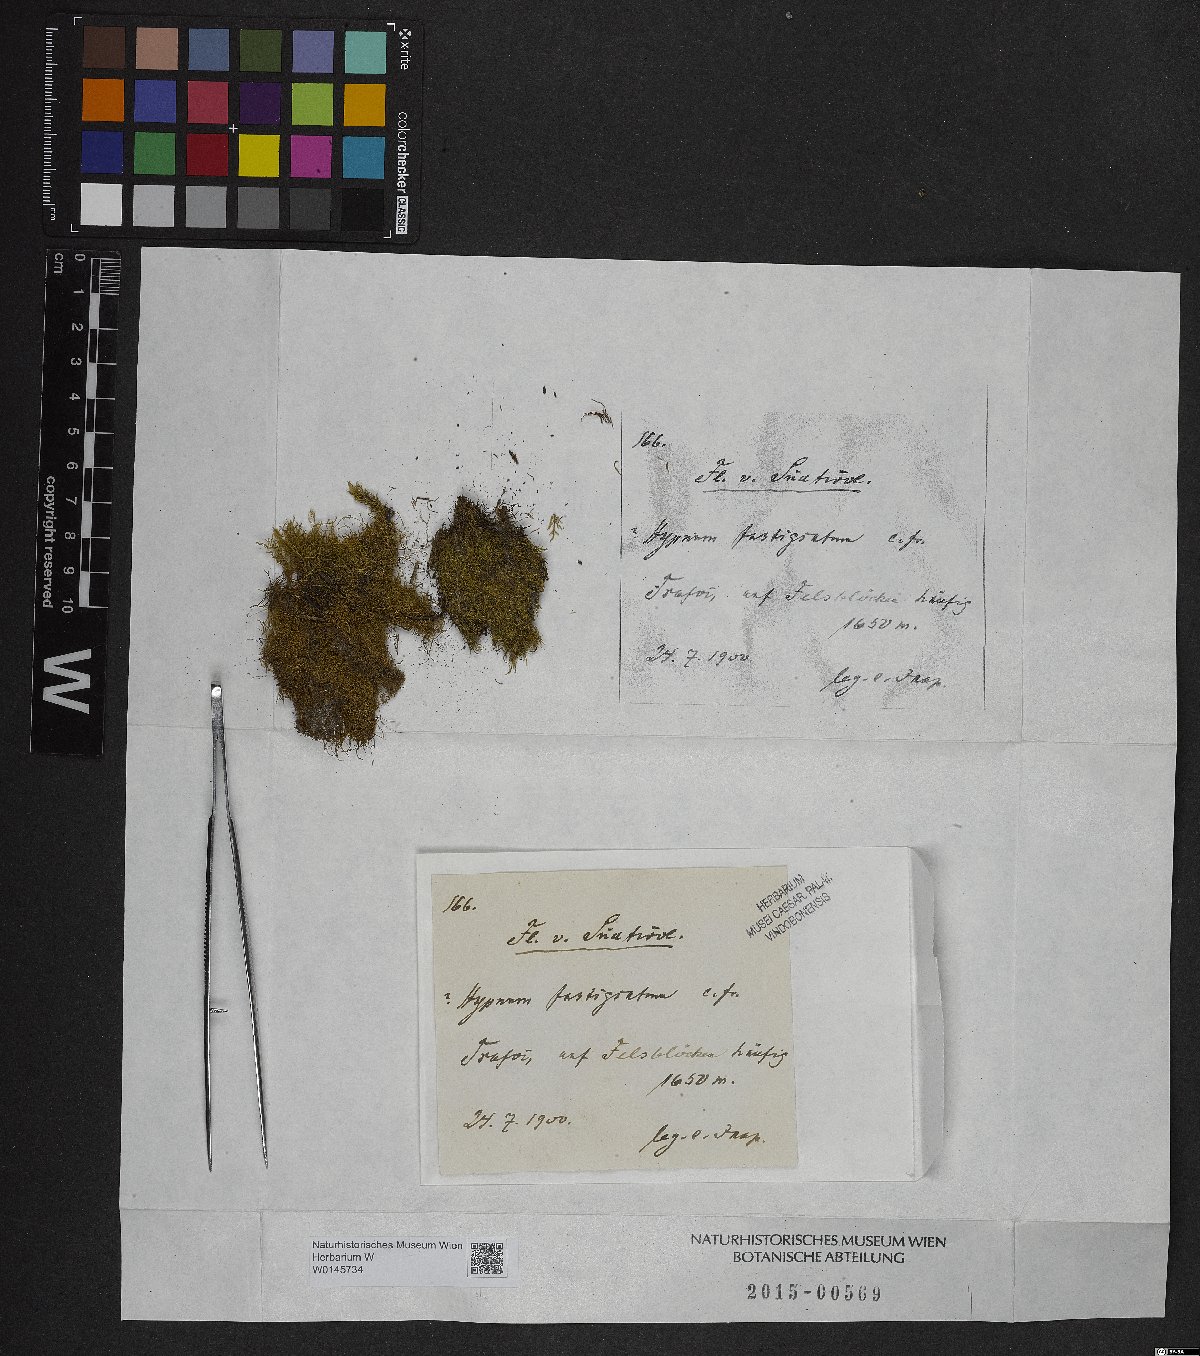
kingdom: Plantae
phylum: Bryophyta
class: Bryopsida
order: Hypnales
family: Amblystegiaceae
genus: Drepanium
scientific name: Drepanium fastigiatum
